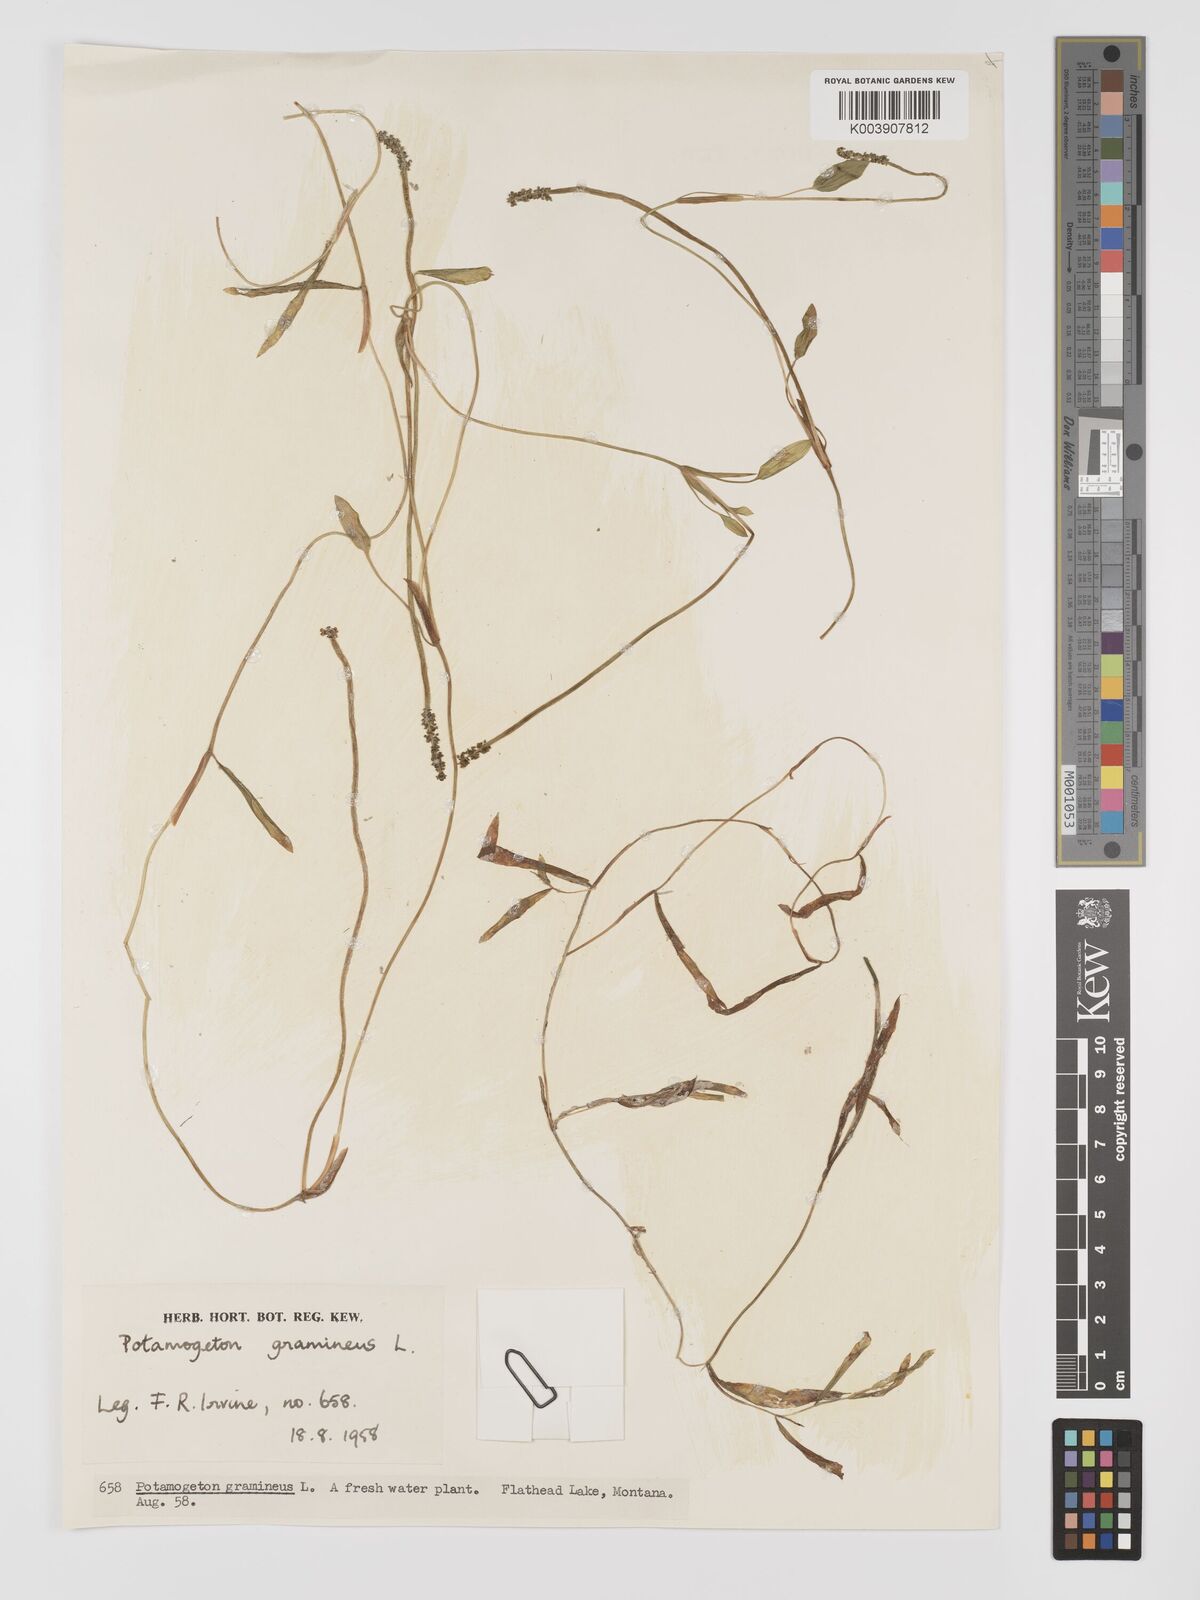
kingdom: Plantae
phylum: Tracheophyta
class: Liliopsida
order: Alismatales
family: Potamogetonaceae
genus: Potamogeton
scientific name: Potamogeton gramineus
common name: Various-leaved pondweed
